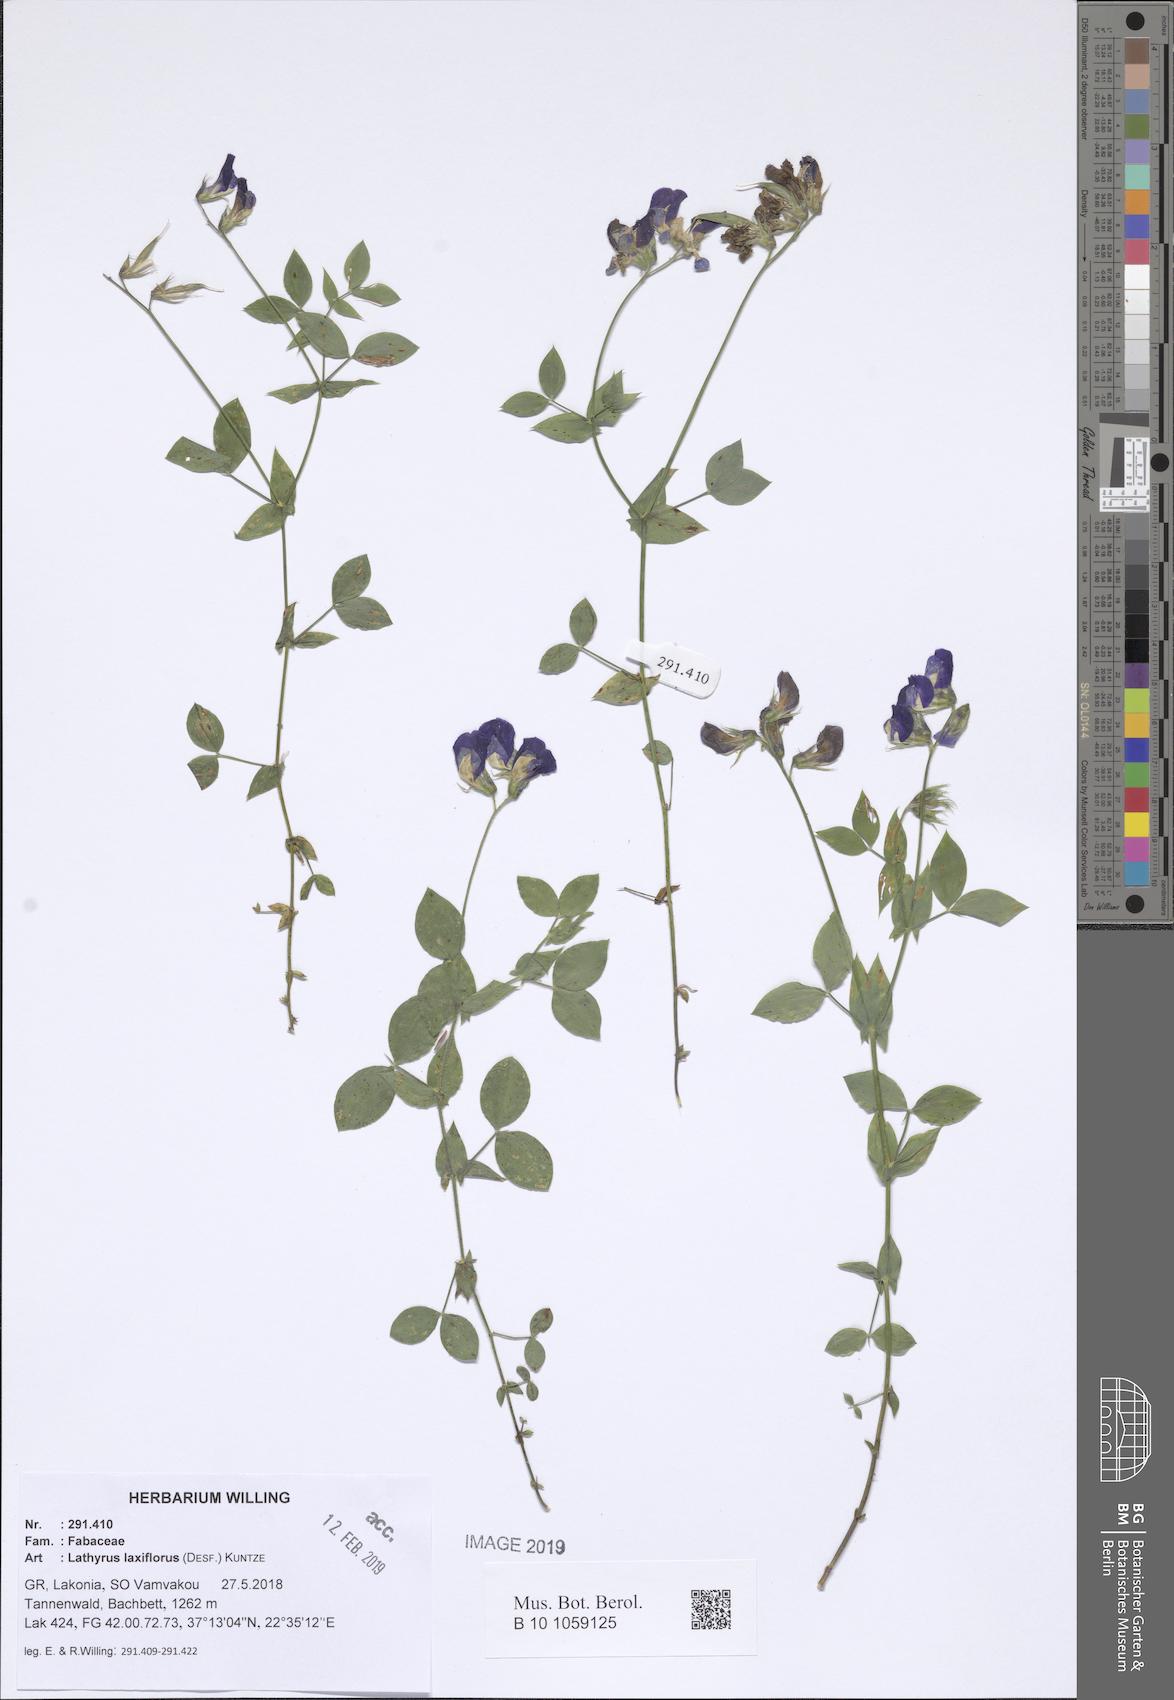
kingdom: Plantae
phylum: Tracheophyta
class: Magnoliopsida
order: Fabales
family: Fabaceae
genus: Lathyrus
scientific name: Lathyrus laxiflorus
